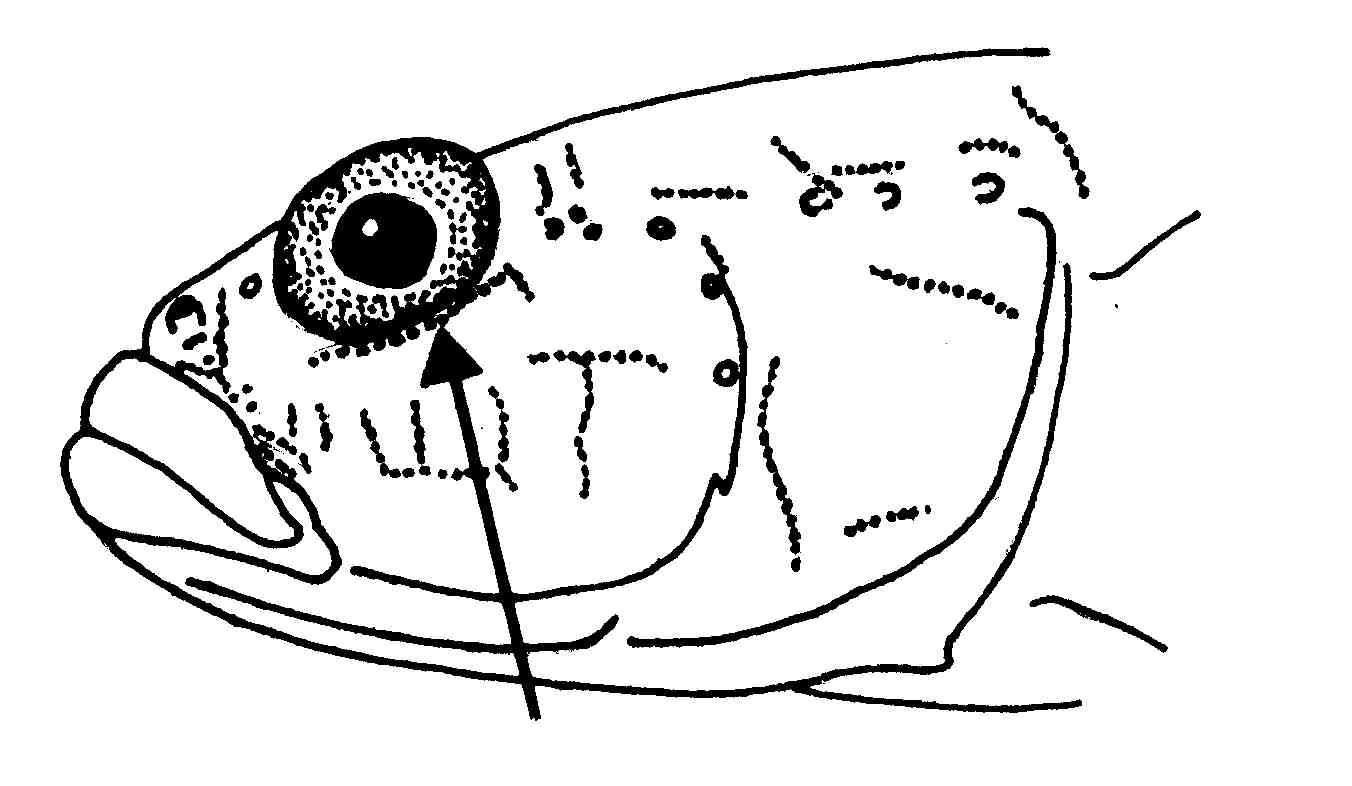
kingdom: Animalia
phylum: Chordata
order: Perciformes
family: Gobiidae
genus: Pomatoschistus
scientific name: Pomatoschistus microps
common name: Common goby
